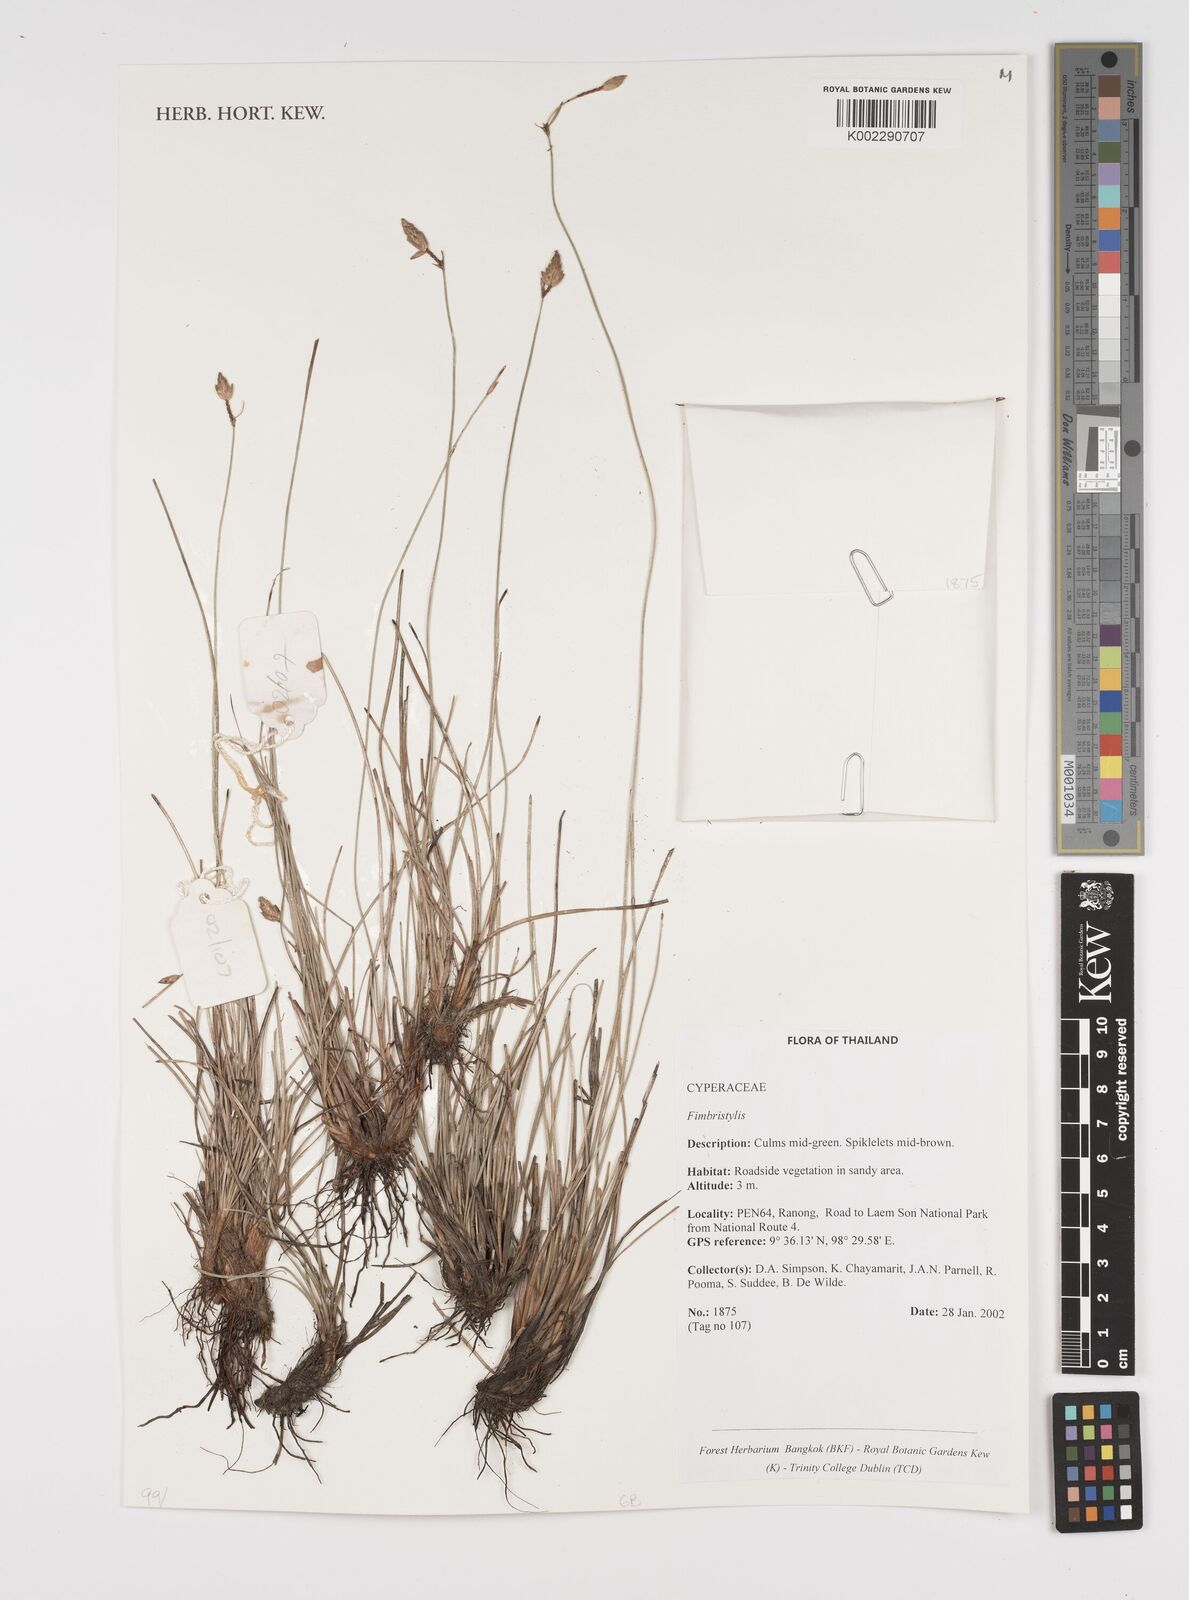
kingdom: Plantae
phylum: Tracheophyta
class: Liliopsida
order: Poales
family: Cyperaceae
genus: Fimbristylis
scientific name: Fimbristylis
